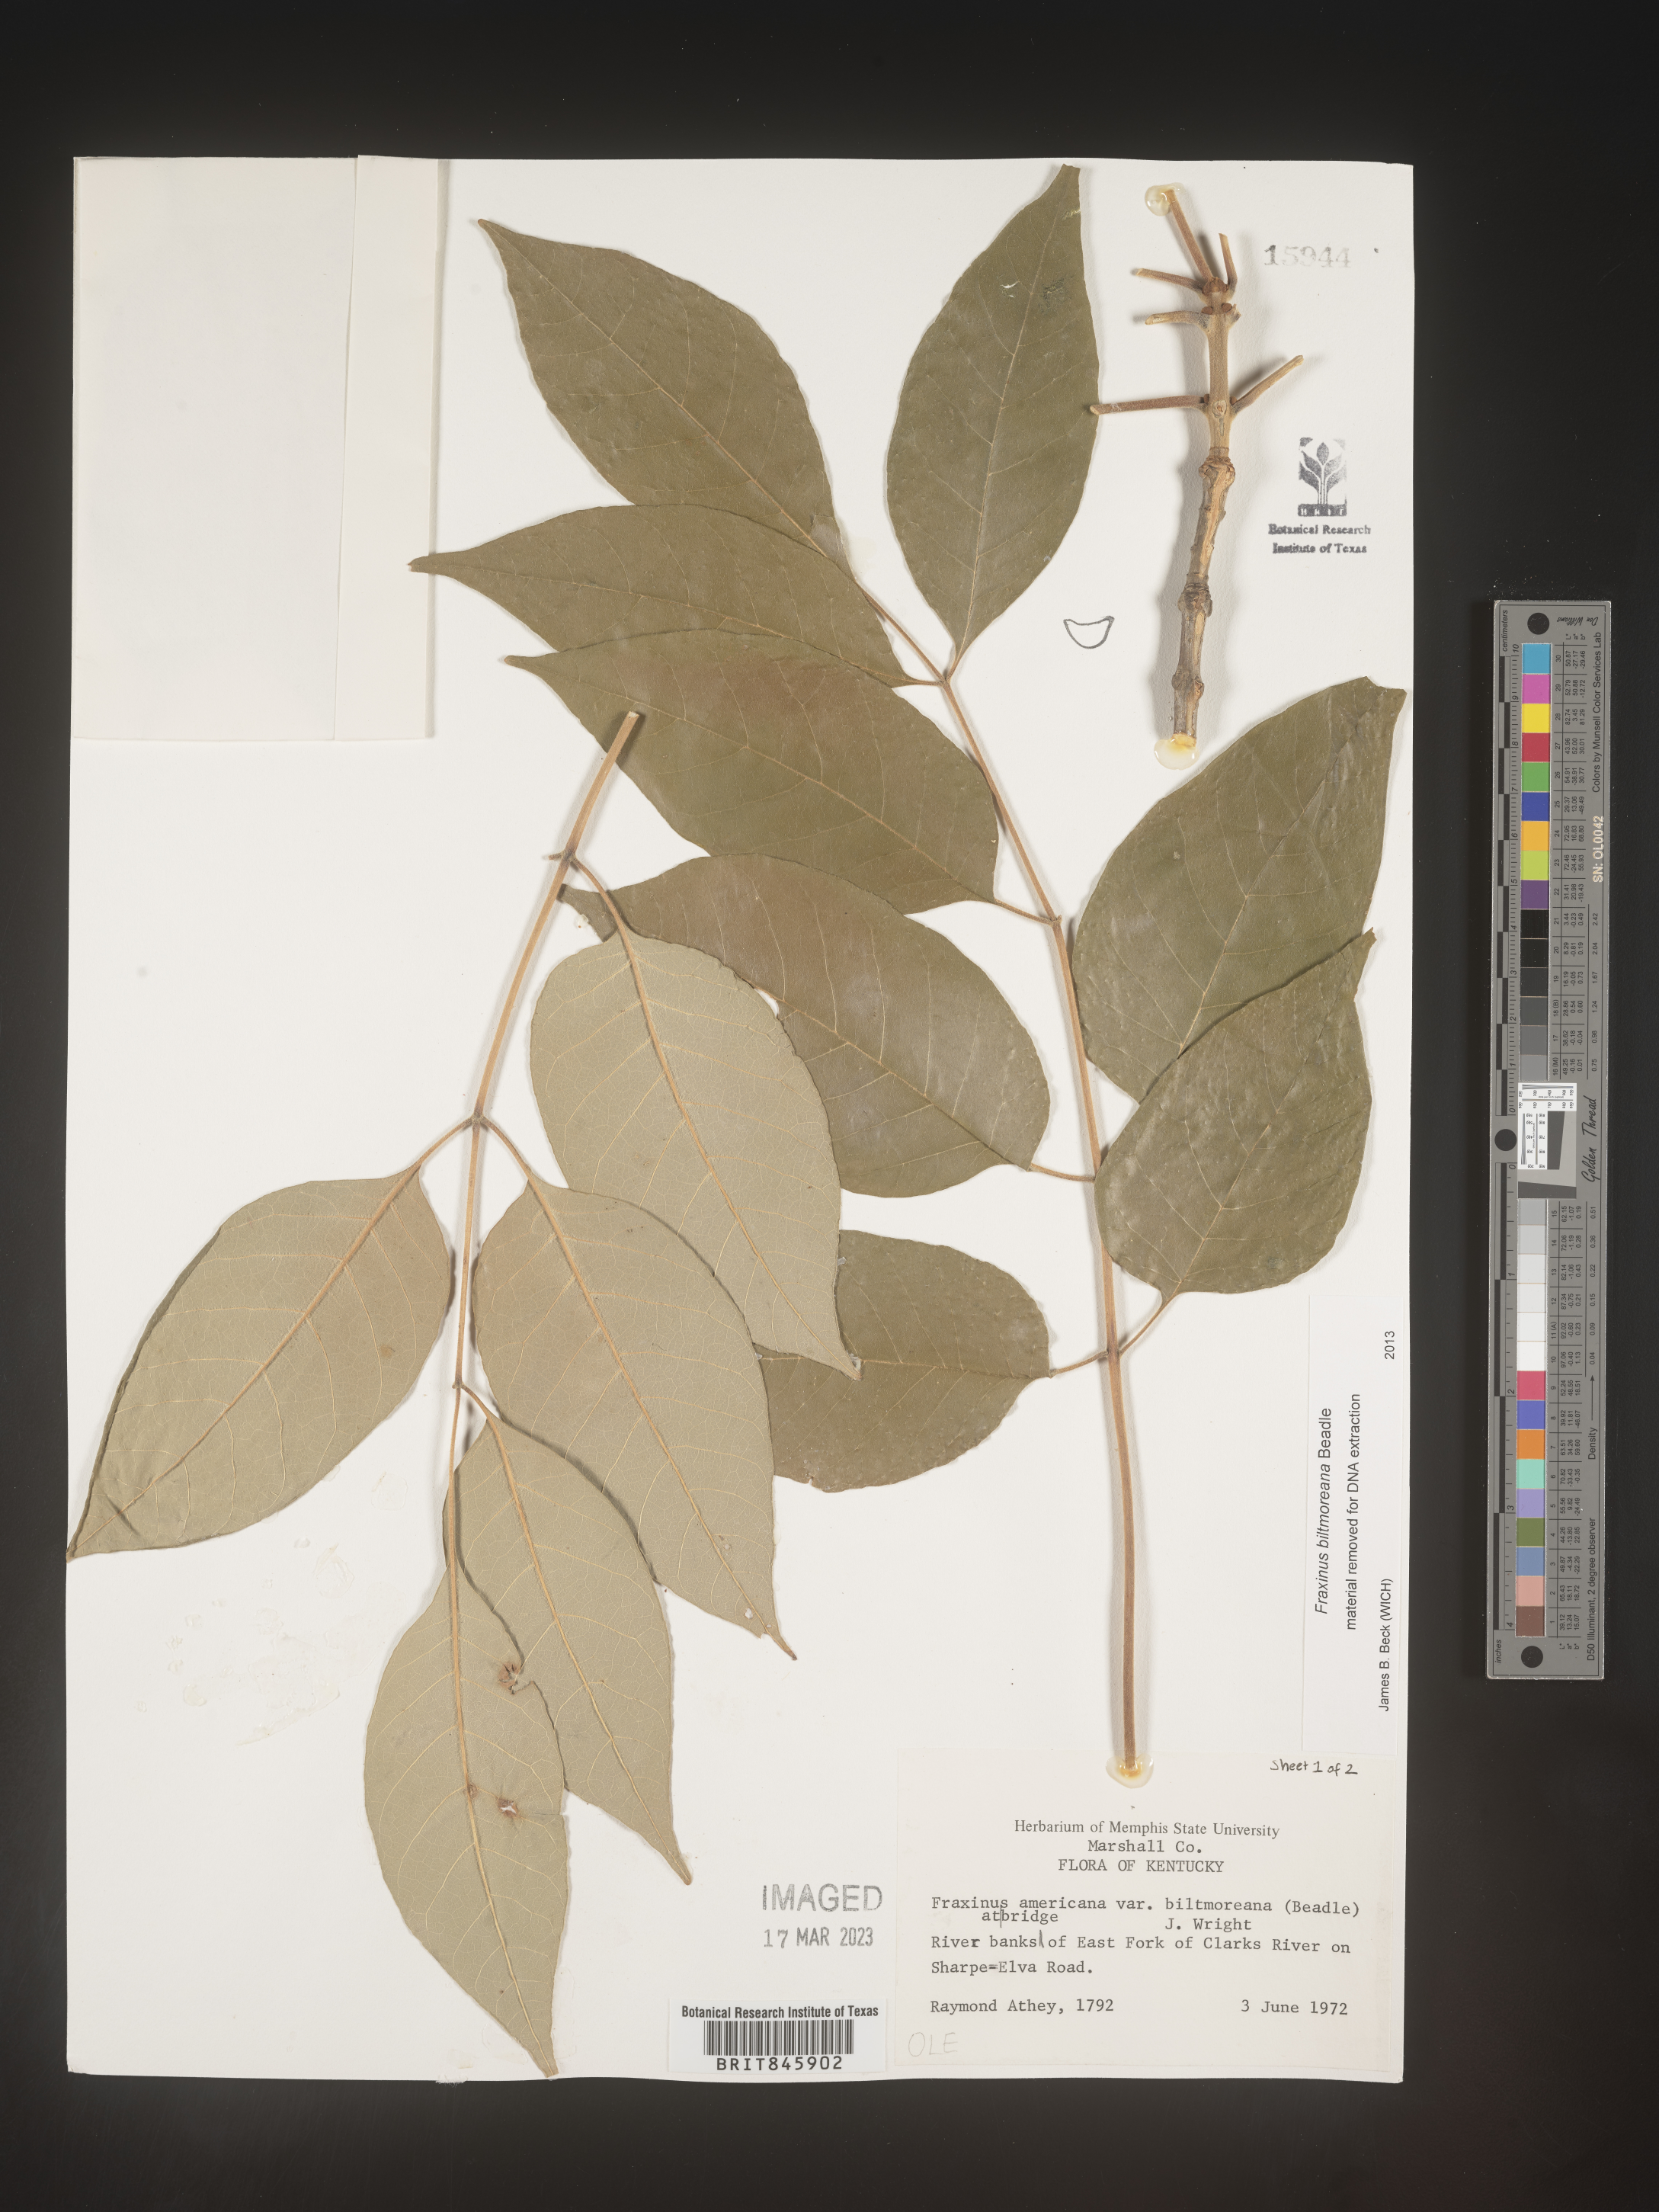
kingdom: Plantae
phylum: Tracheophyta
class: Magnoliopsida
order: Lamiales
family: Oleaceae
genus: Fraxinus
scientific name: Fraxinus americana
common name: White ash
